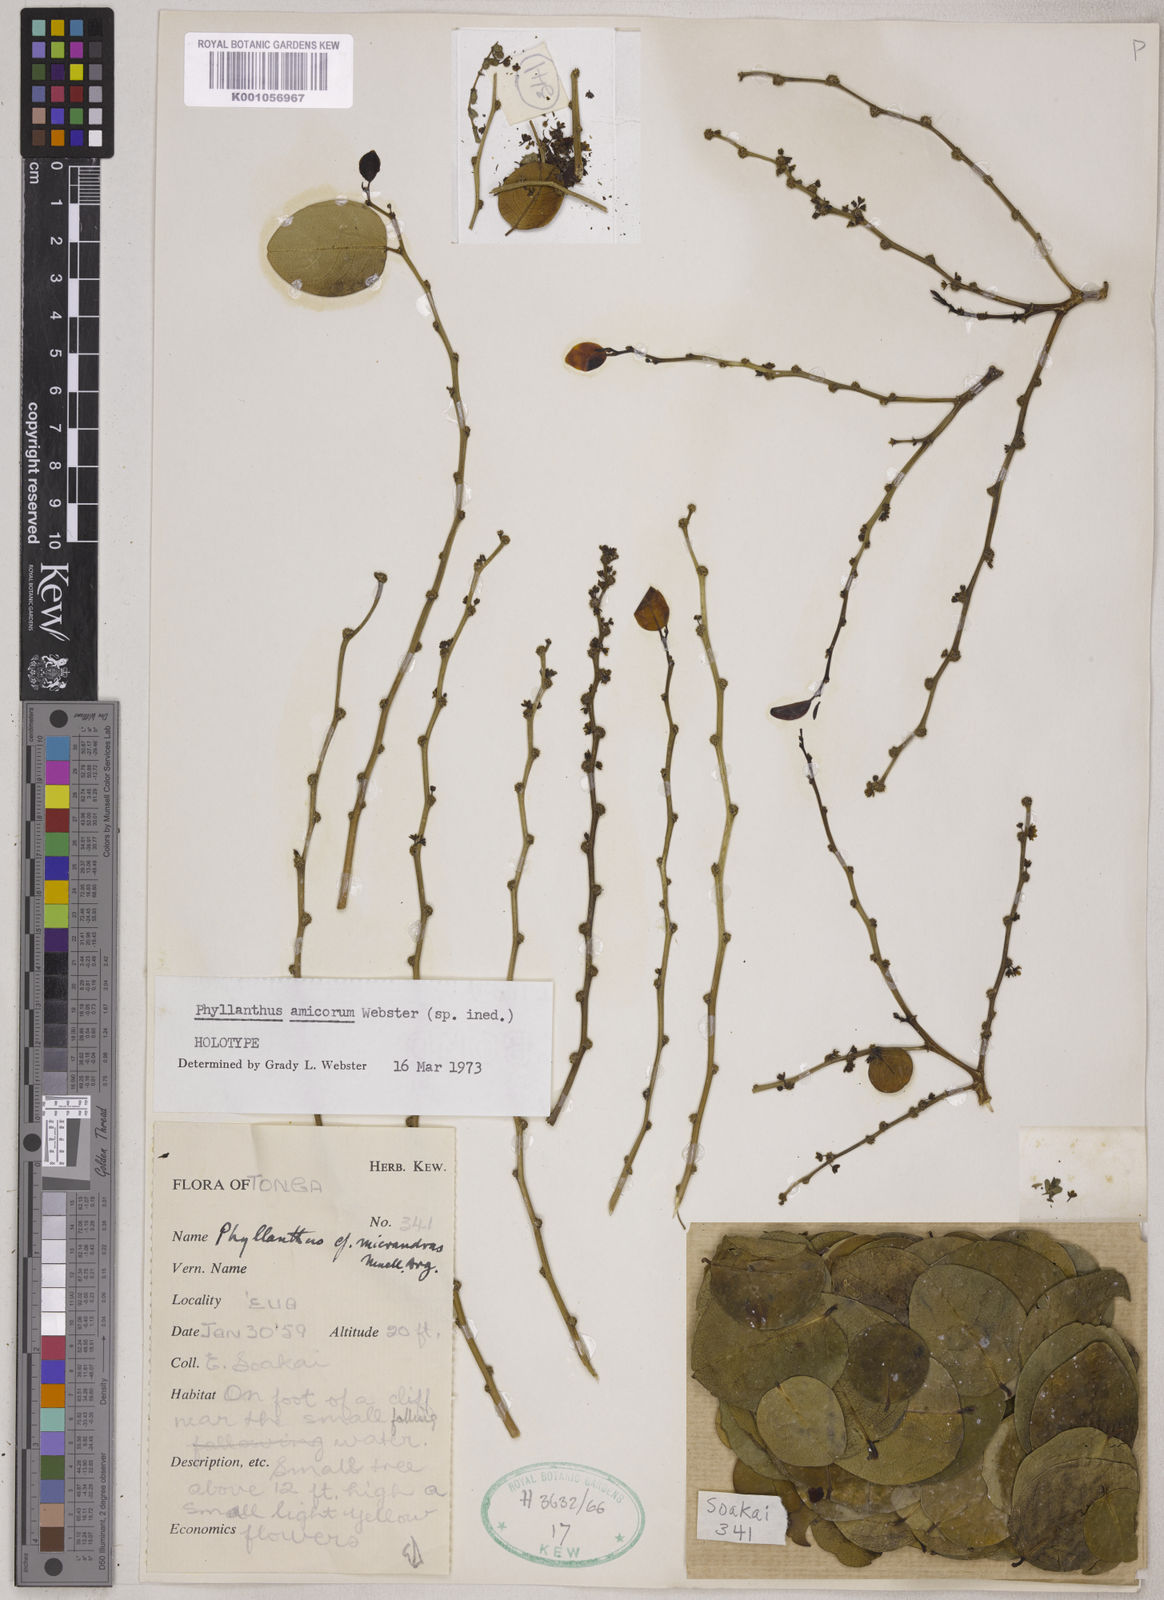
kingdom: Plantae
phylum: Tracheophyta
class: Magnoliopsida
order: Malpighiales
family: Phyllanthaceae
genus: Phyllanthus
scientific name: Phyllanthus amicorum
